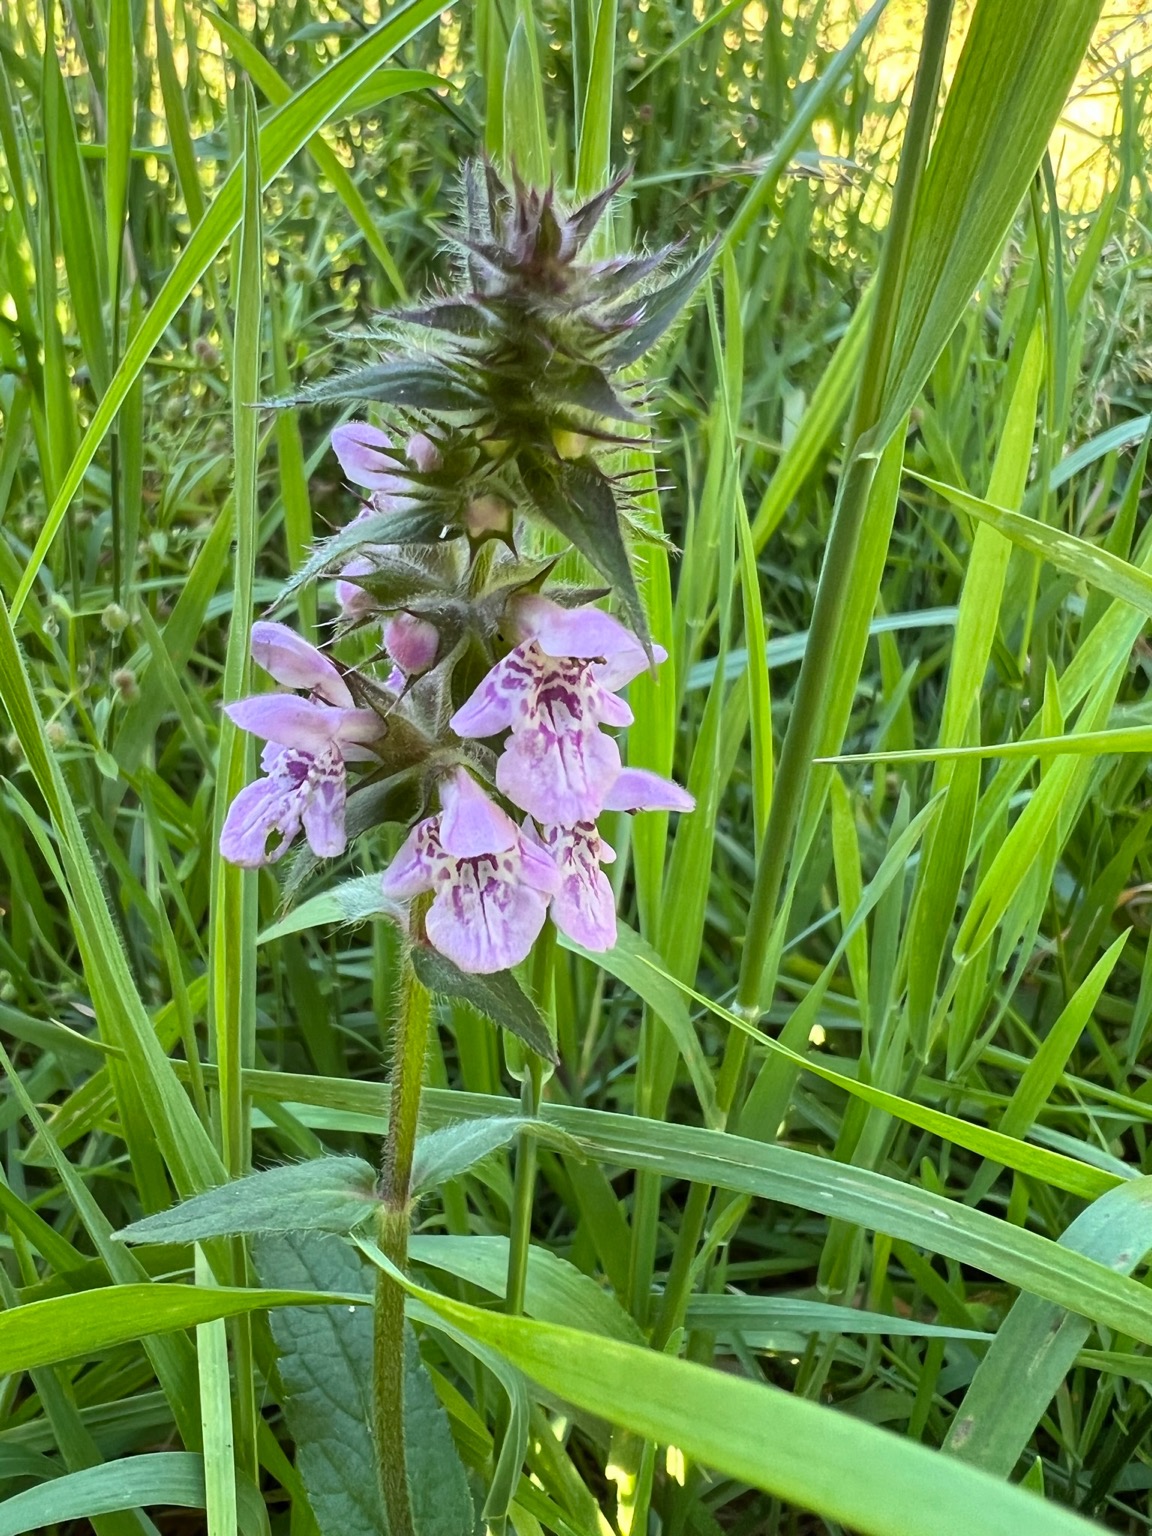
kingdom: Plantae
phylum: Tracheophyta
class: Magnoliopsida
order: Lamiales
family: Lamiaceae
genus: Stachys
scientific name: Stachys palustris
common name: Kær-galtetand
